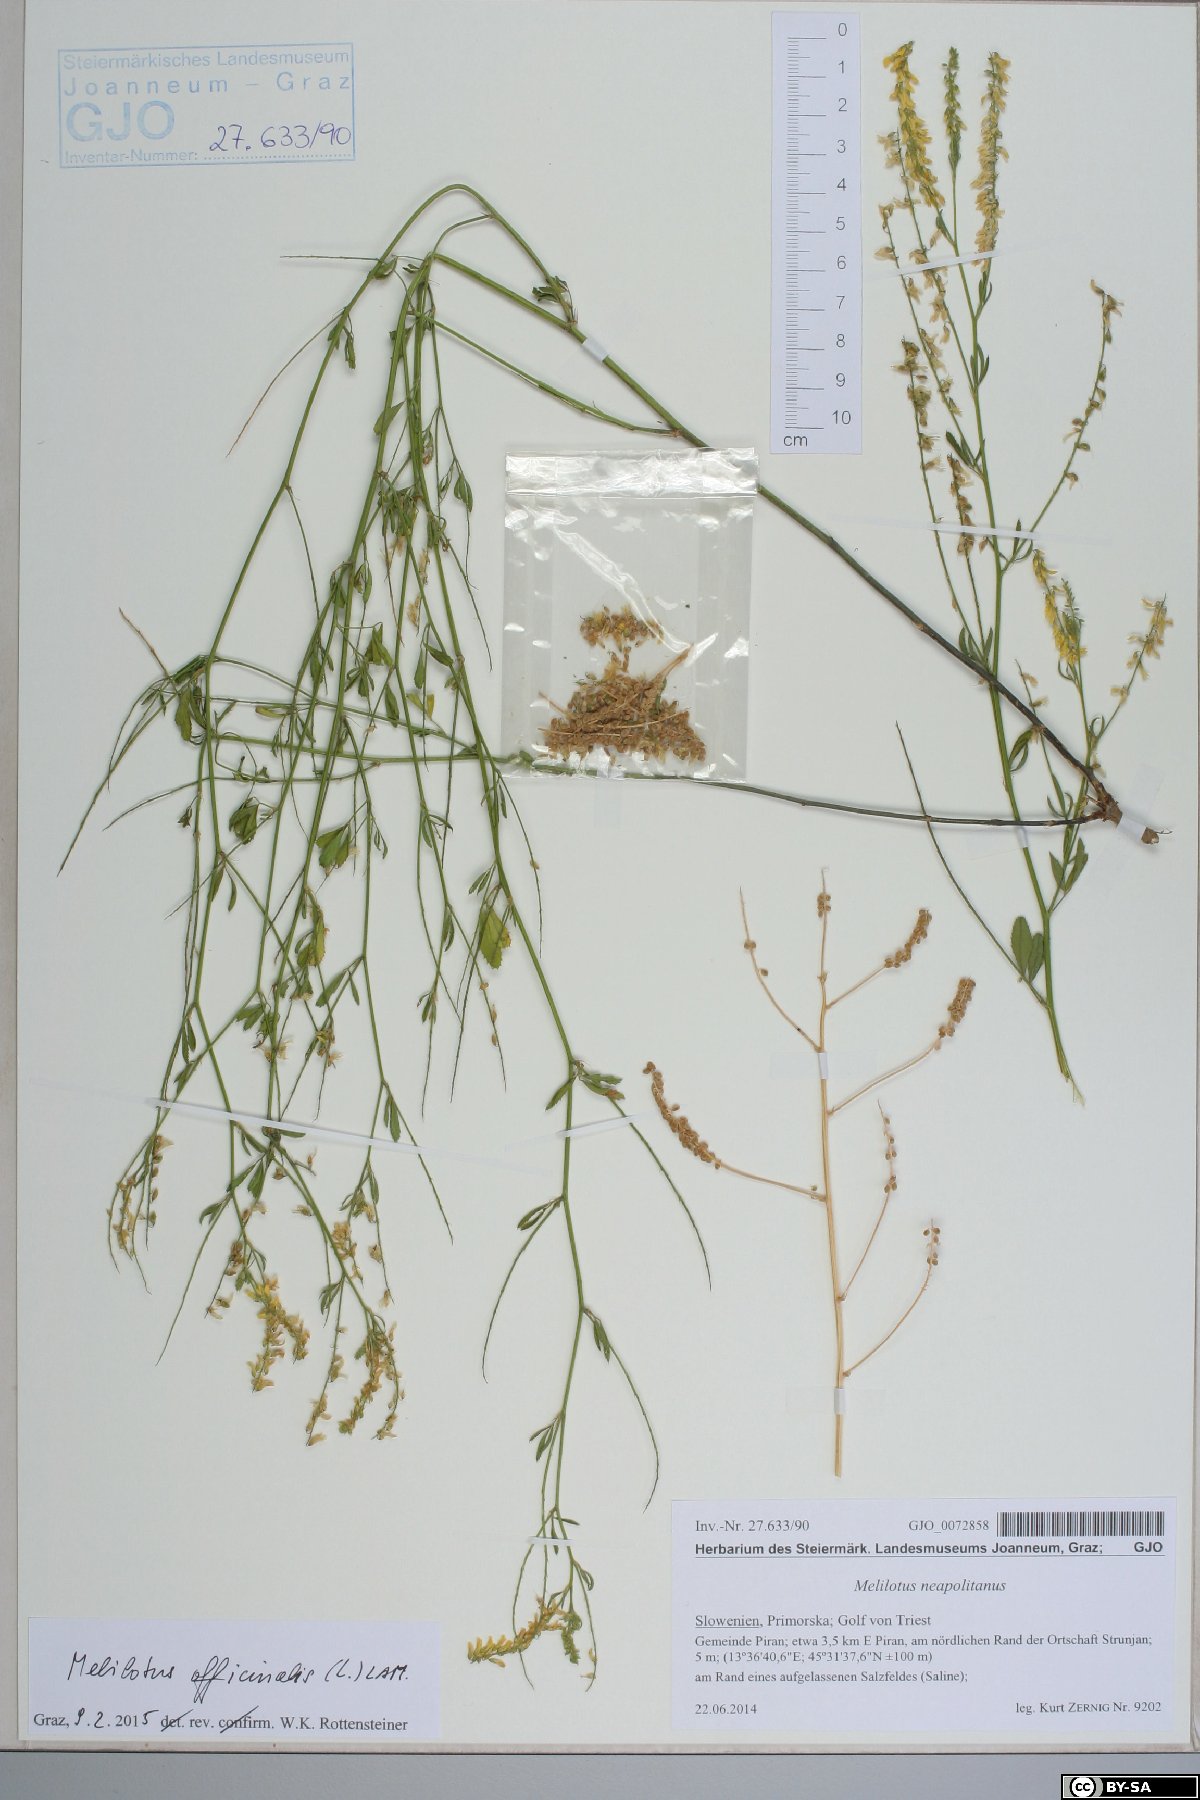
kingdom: Plantae
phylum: Tracheophyta
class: Magnoliopsida
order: Fabales
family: Fabaceae
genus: Melilotus
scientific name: Melilotus officinalis
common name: Sweetclover
